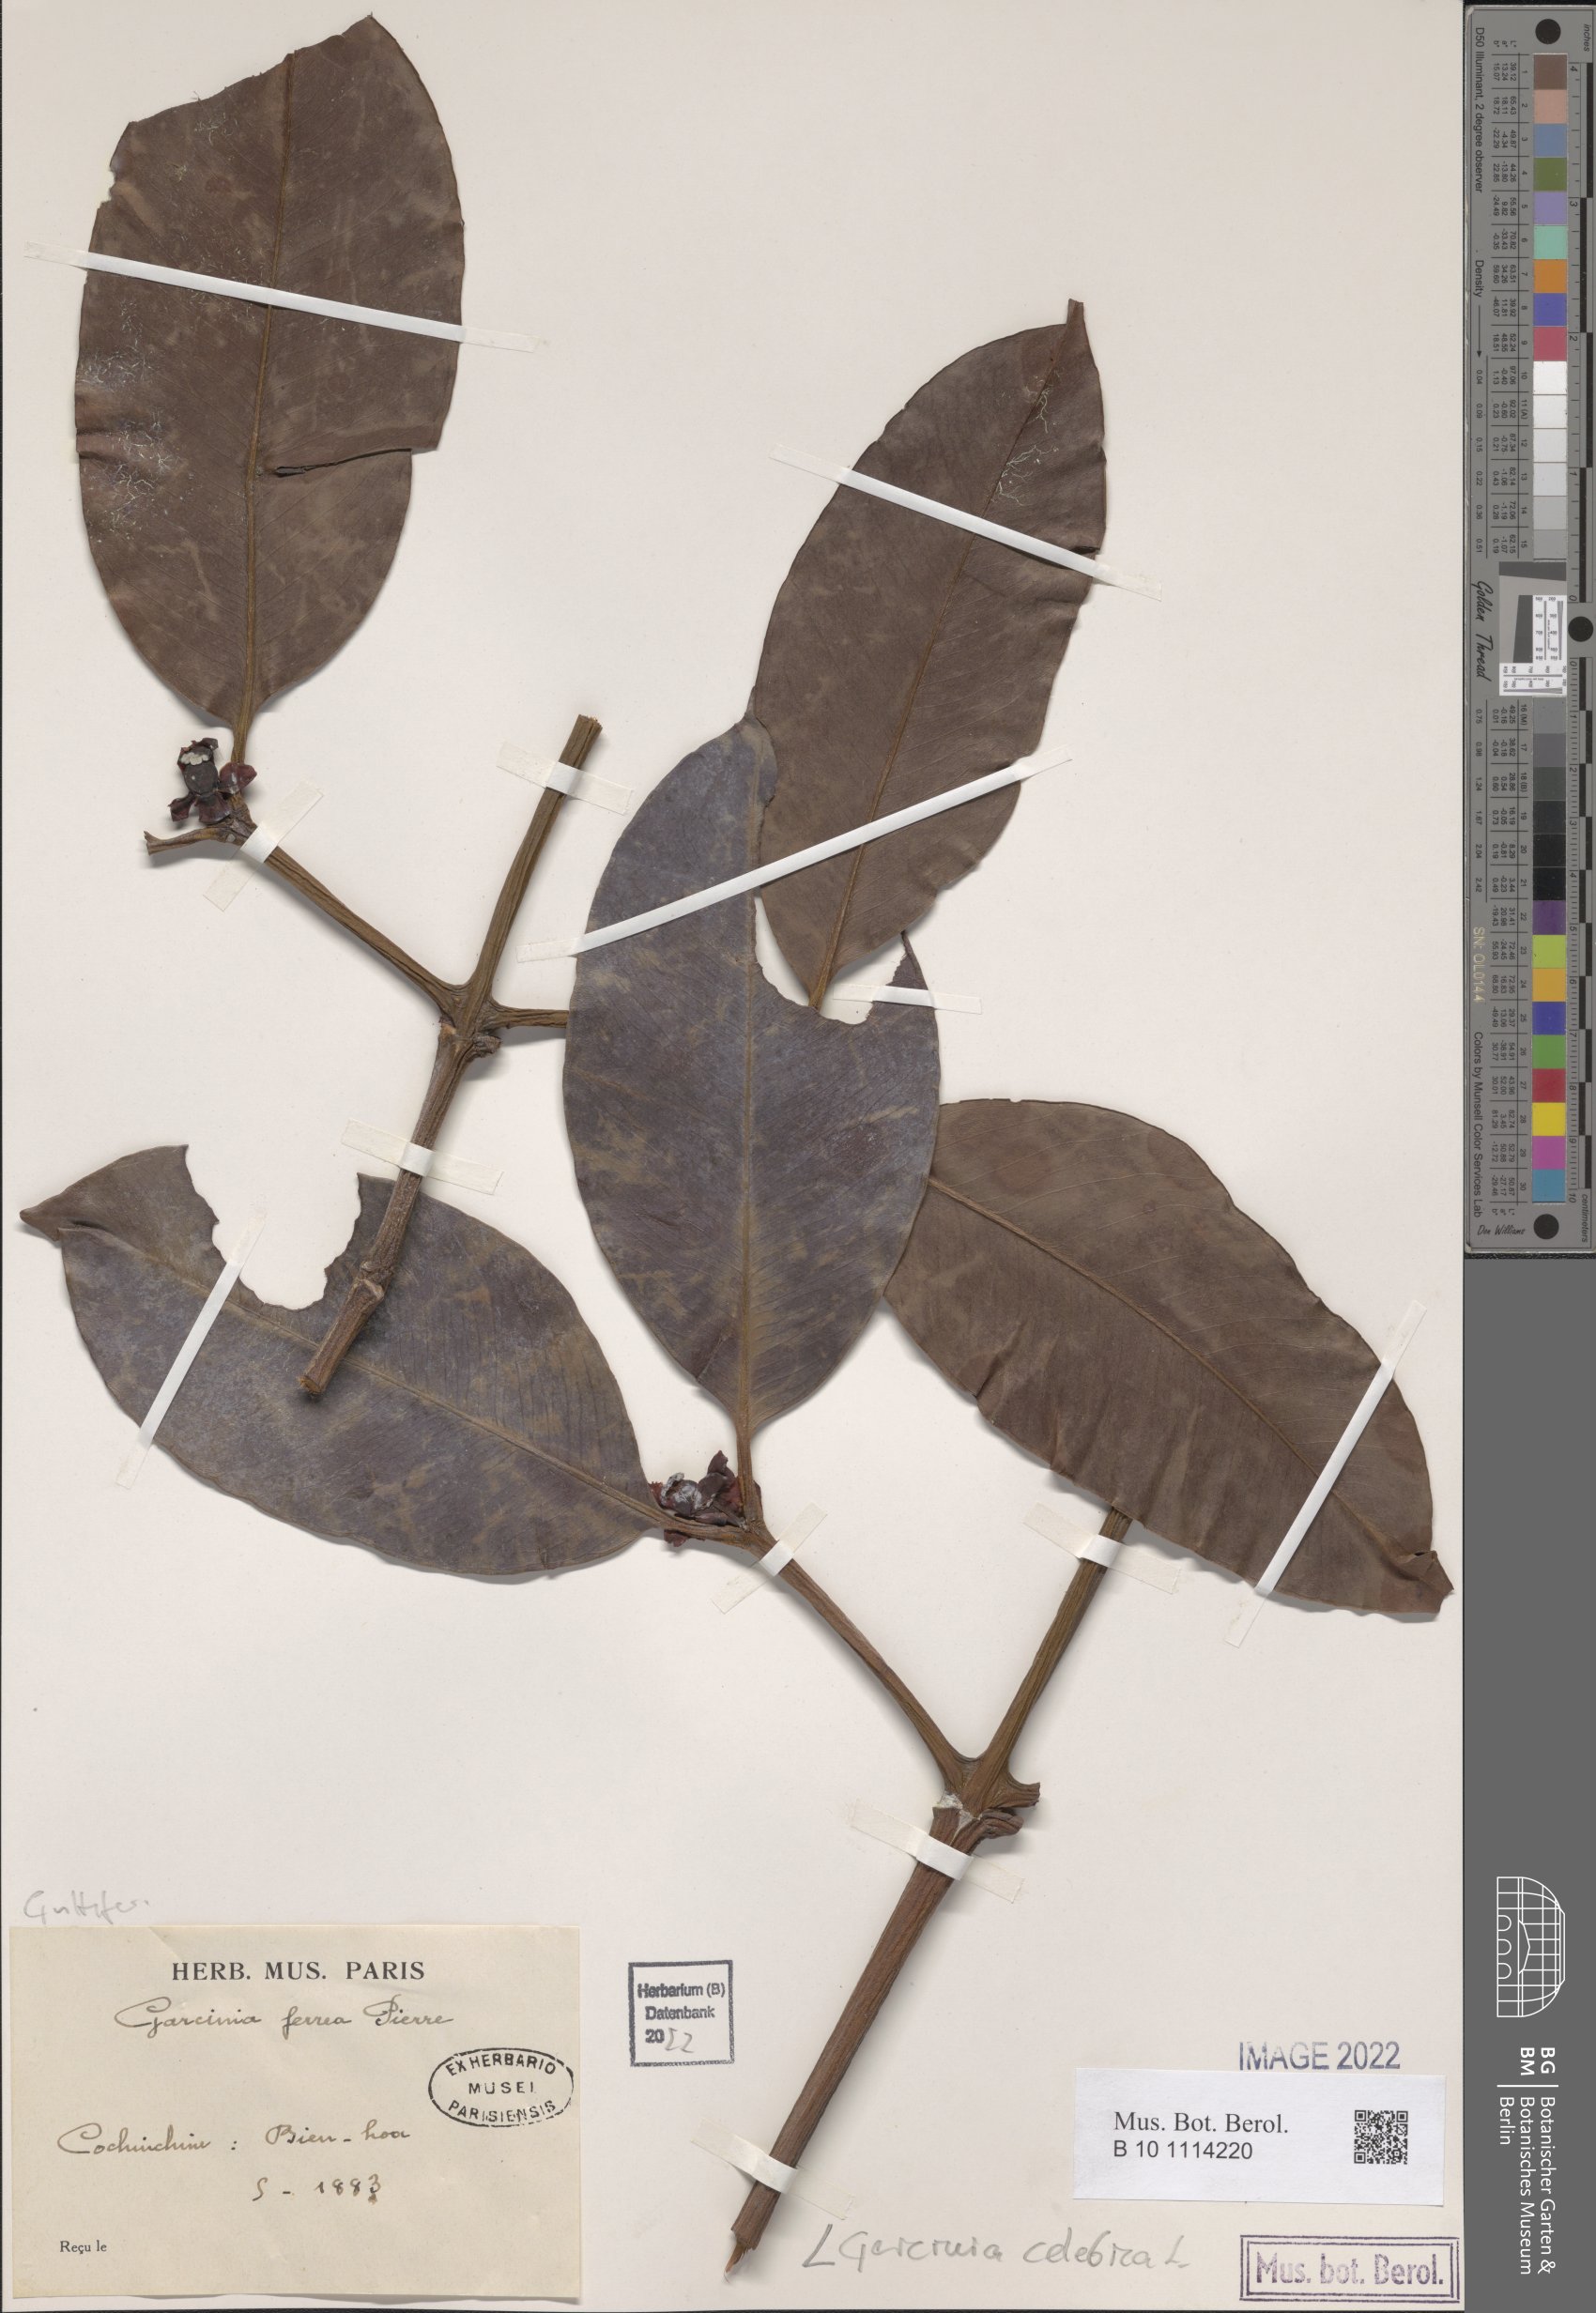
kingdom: Plantae
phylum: Tracheophyta
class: Magnoliopsida
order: Malpighiales
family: Clusiaceae
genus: Garcinia
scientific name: Garcinia celebica
